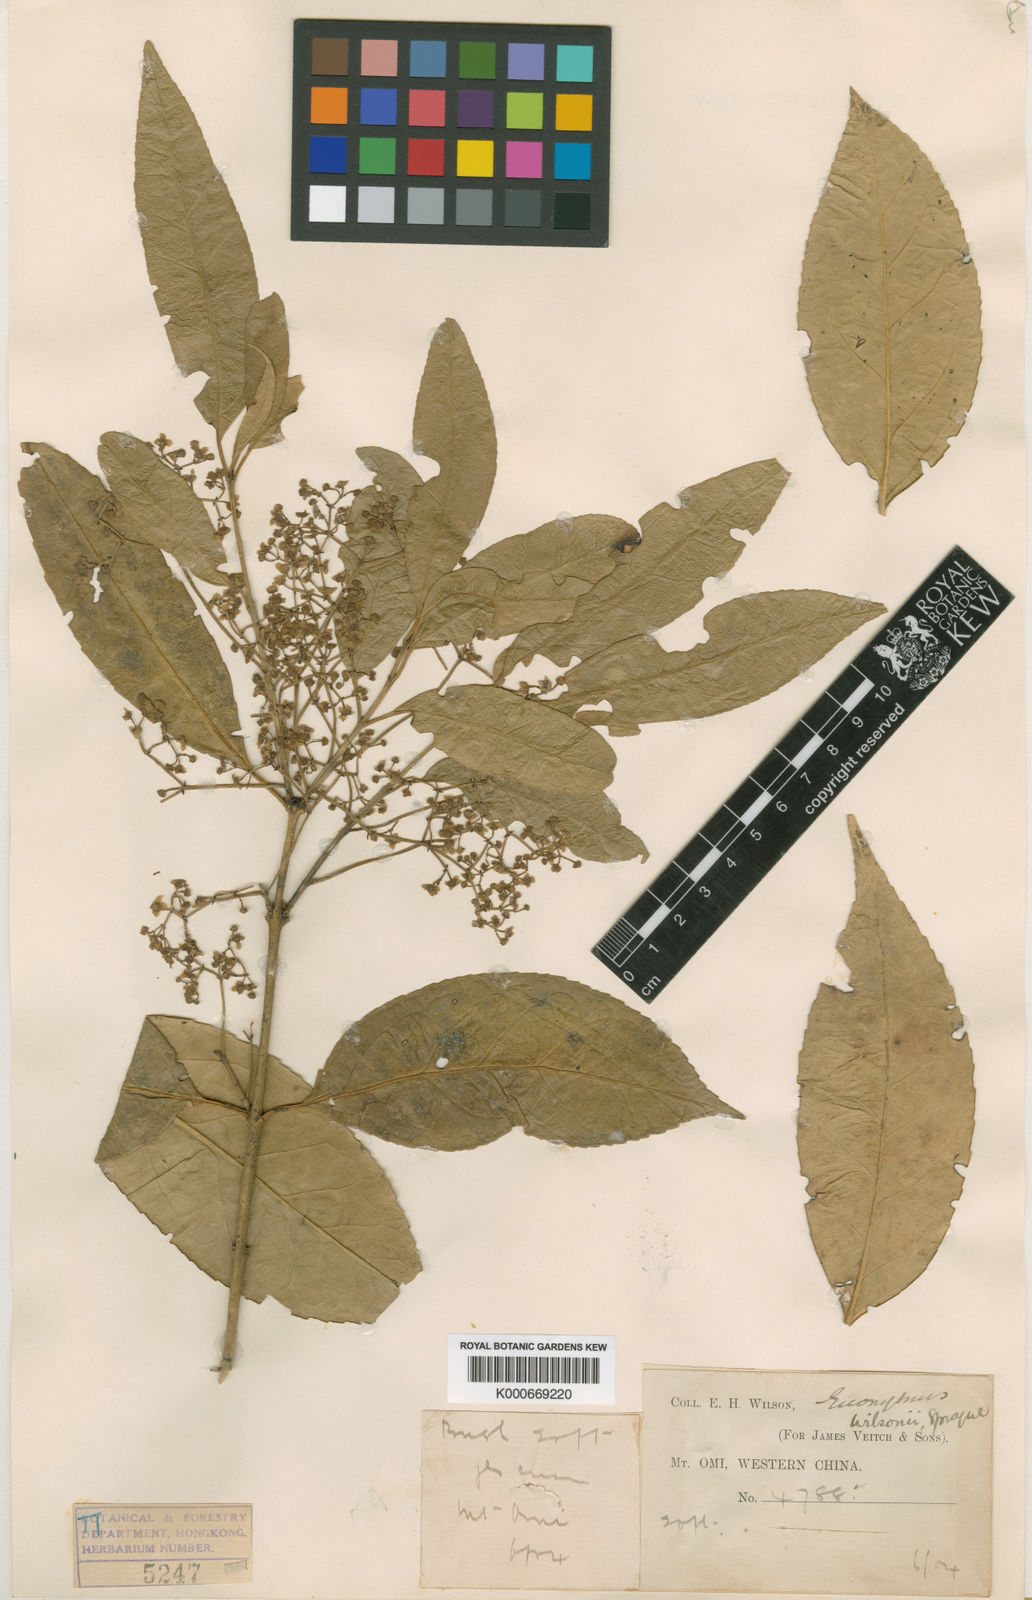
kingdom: Plantae
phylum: Tracheophyta
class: Magnoliopsida
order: Celastrales
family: Celastraceae
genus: Euonymus
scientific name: Euonymus wilsonii
